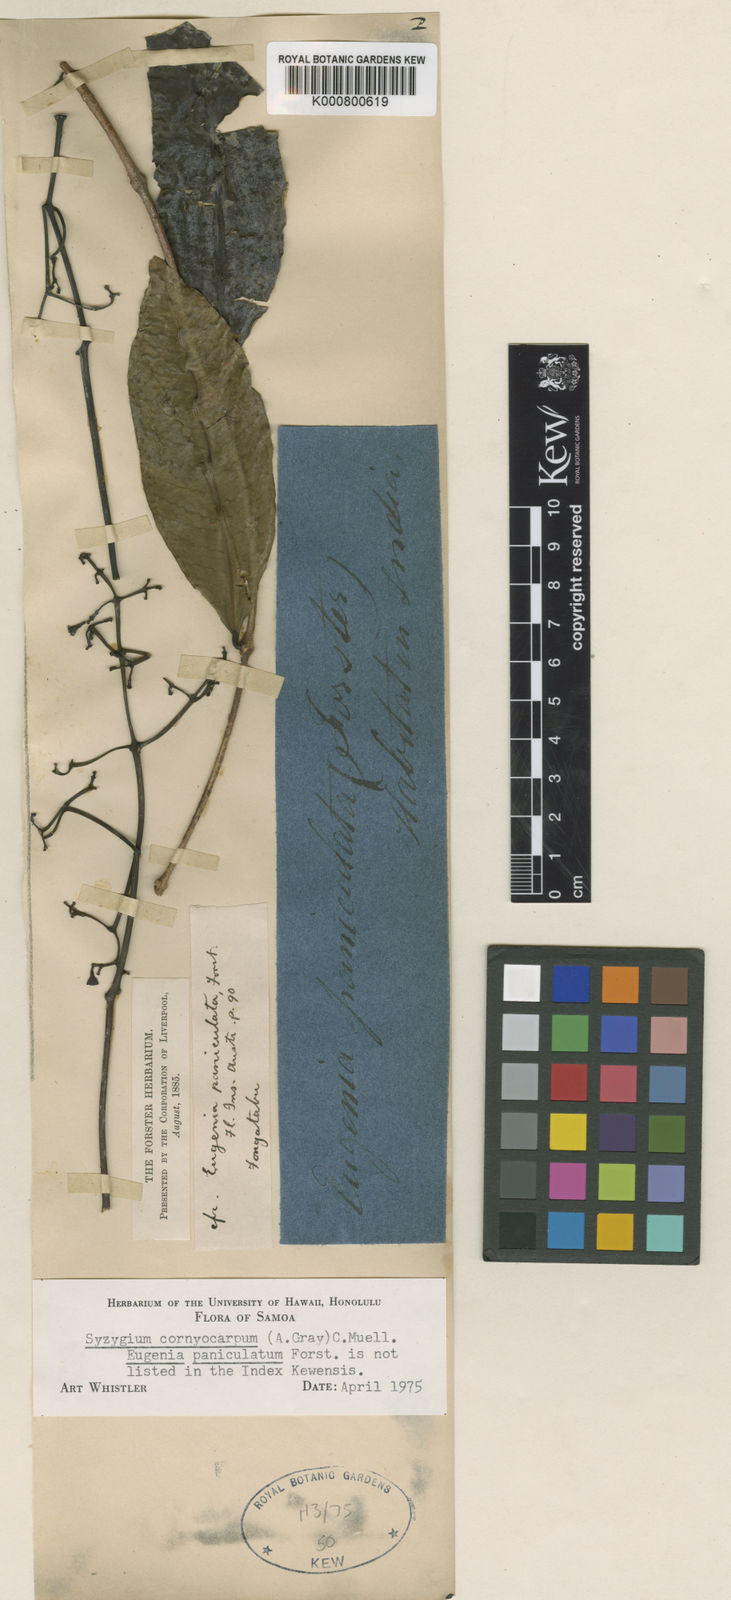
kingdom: Plantae
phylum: Tracheophyta
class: Magnoliopsida
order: Myrtales
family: Myrtaceae
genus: Syzygium
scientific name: Syzygium
